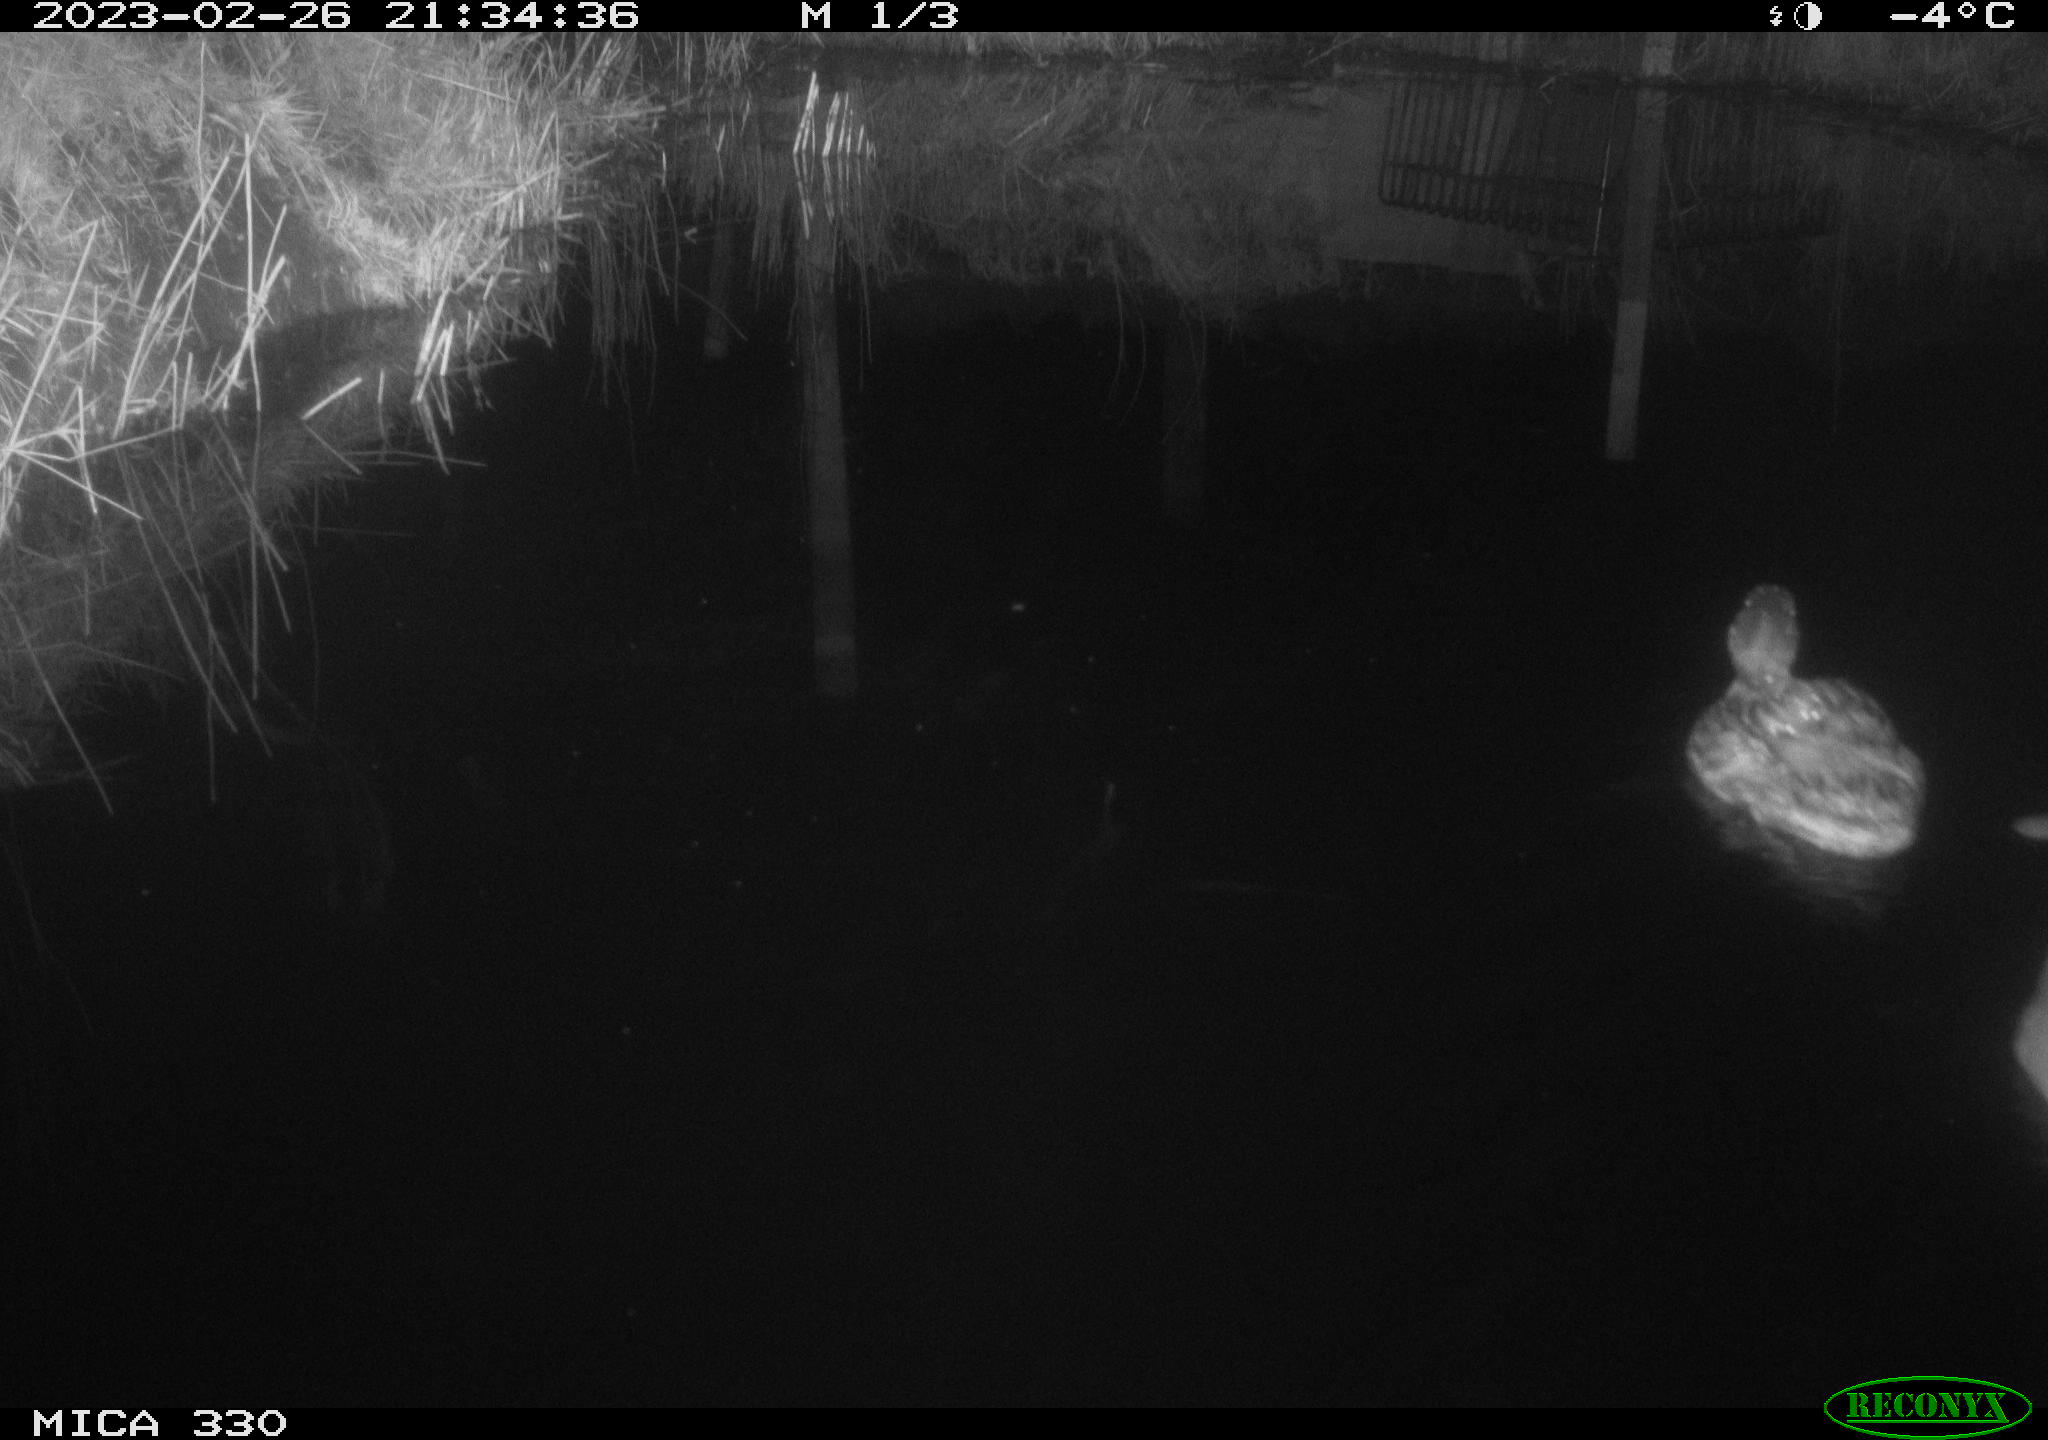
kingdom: Animalia
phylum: Chordata
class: Aves
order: Anseriformes
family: Anatidae
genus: Anas
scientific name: Anas
